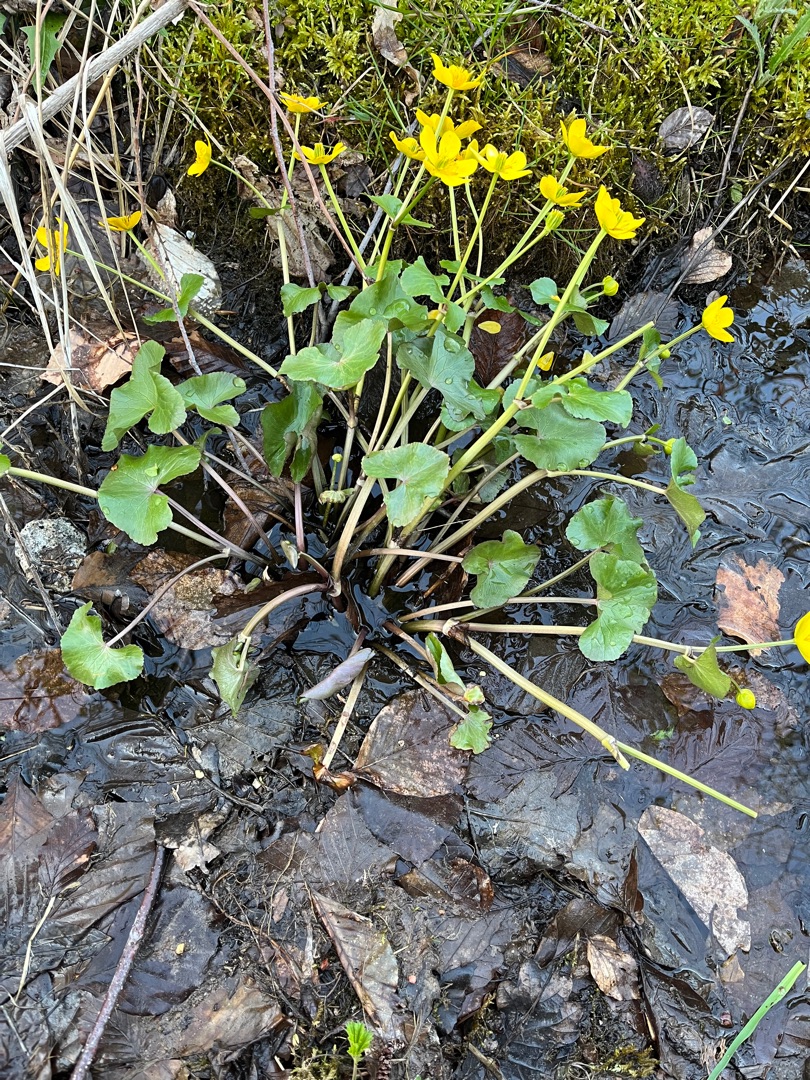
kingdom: Plantae
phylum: Tracheophyta
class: Magnoliopsida
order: Ranunculales
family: Ranunculaceae
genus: Caltha
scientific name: Caltha palustris
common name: Eng-kabbeleje
